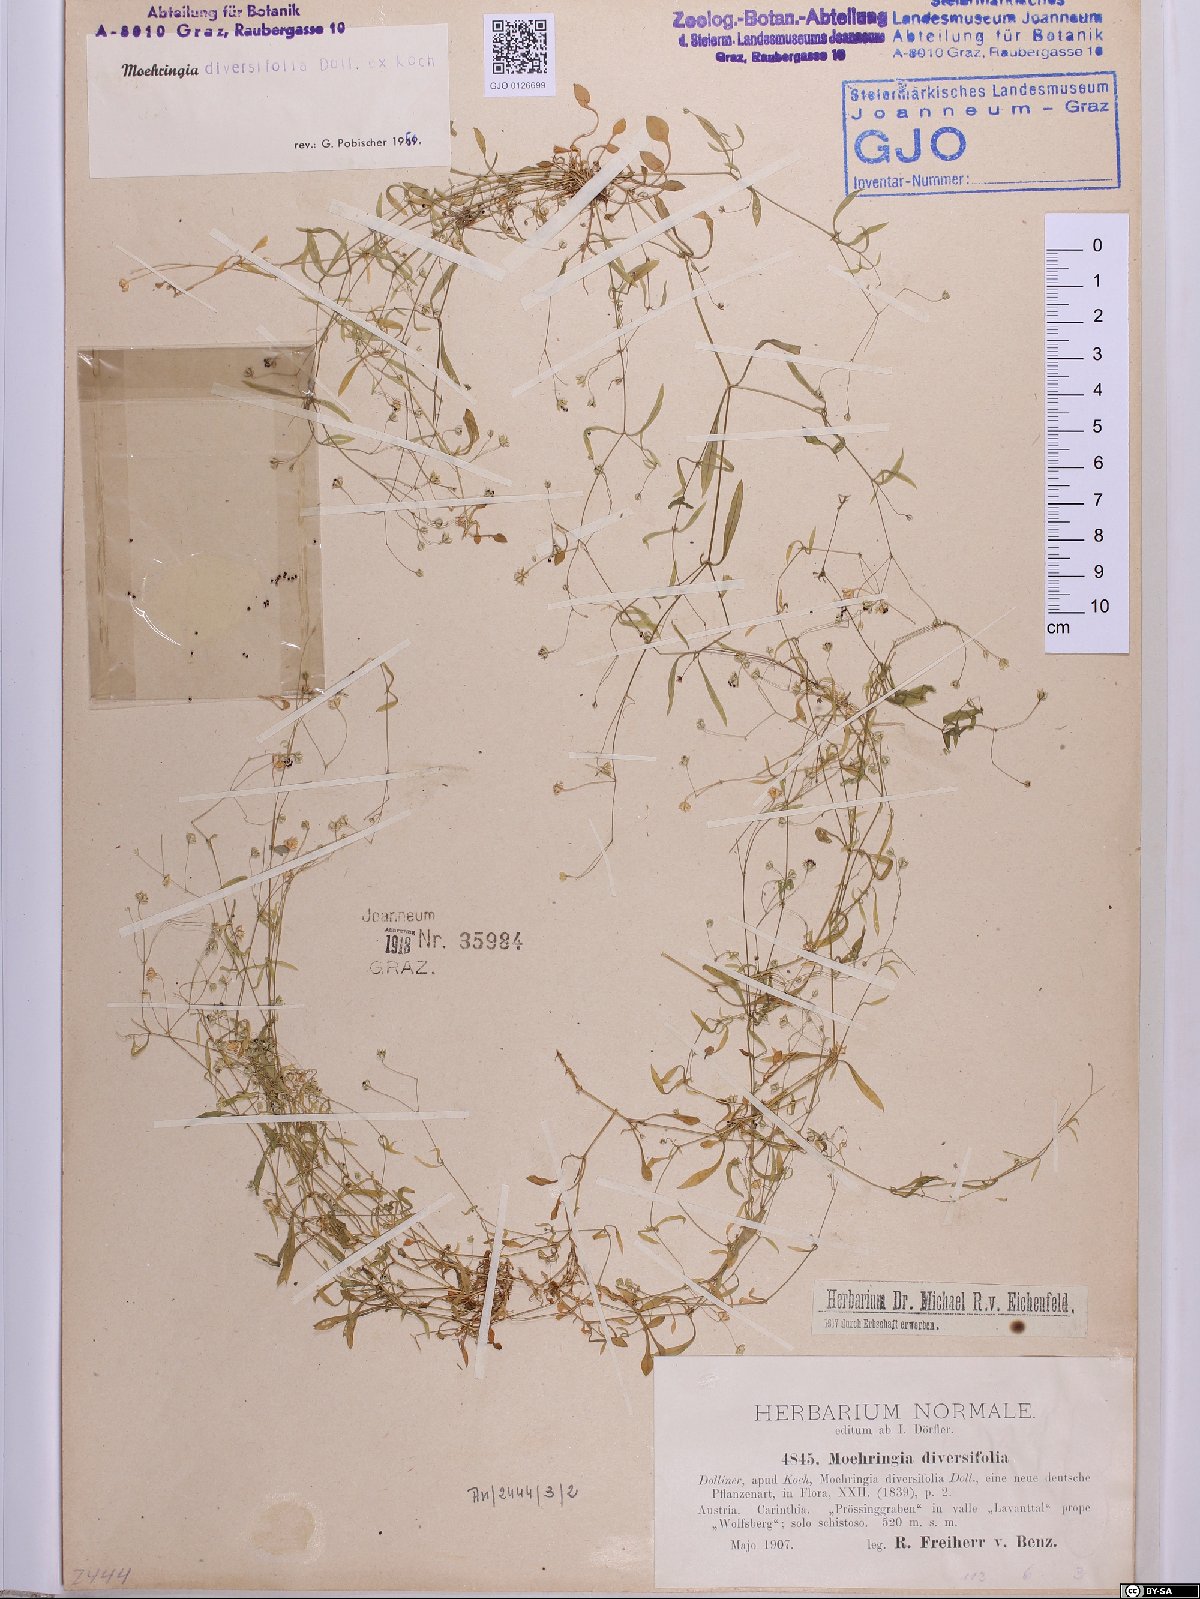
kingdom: Plantae
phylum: Tracheophyta
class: Magnoliopsida
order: Caryophyllales
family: Caryophyllaceae
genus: Moehringia
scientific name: Moehringia diversifolia
